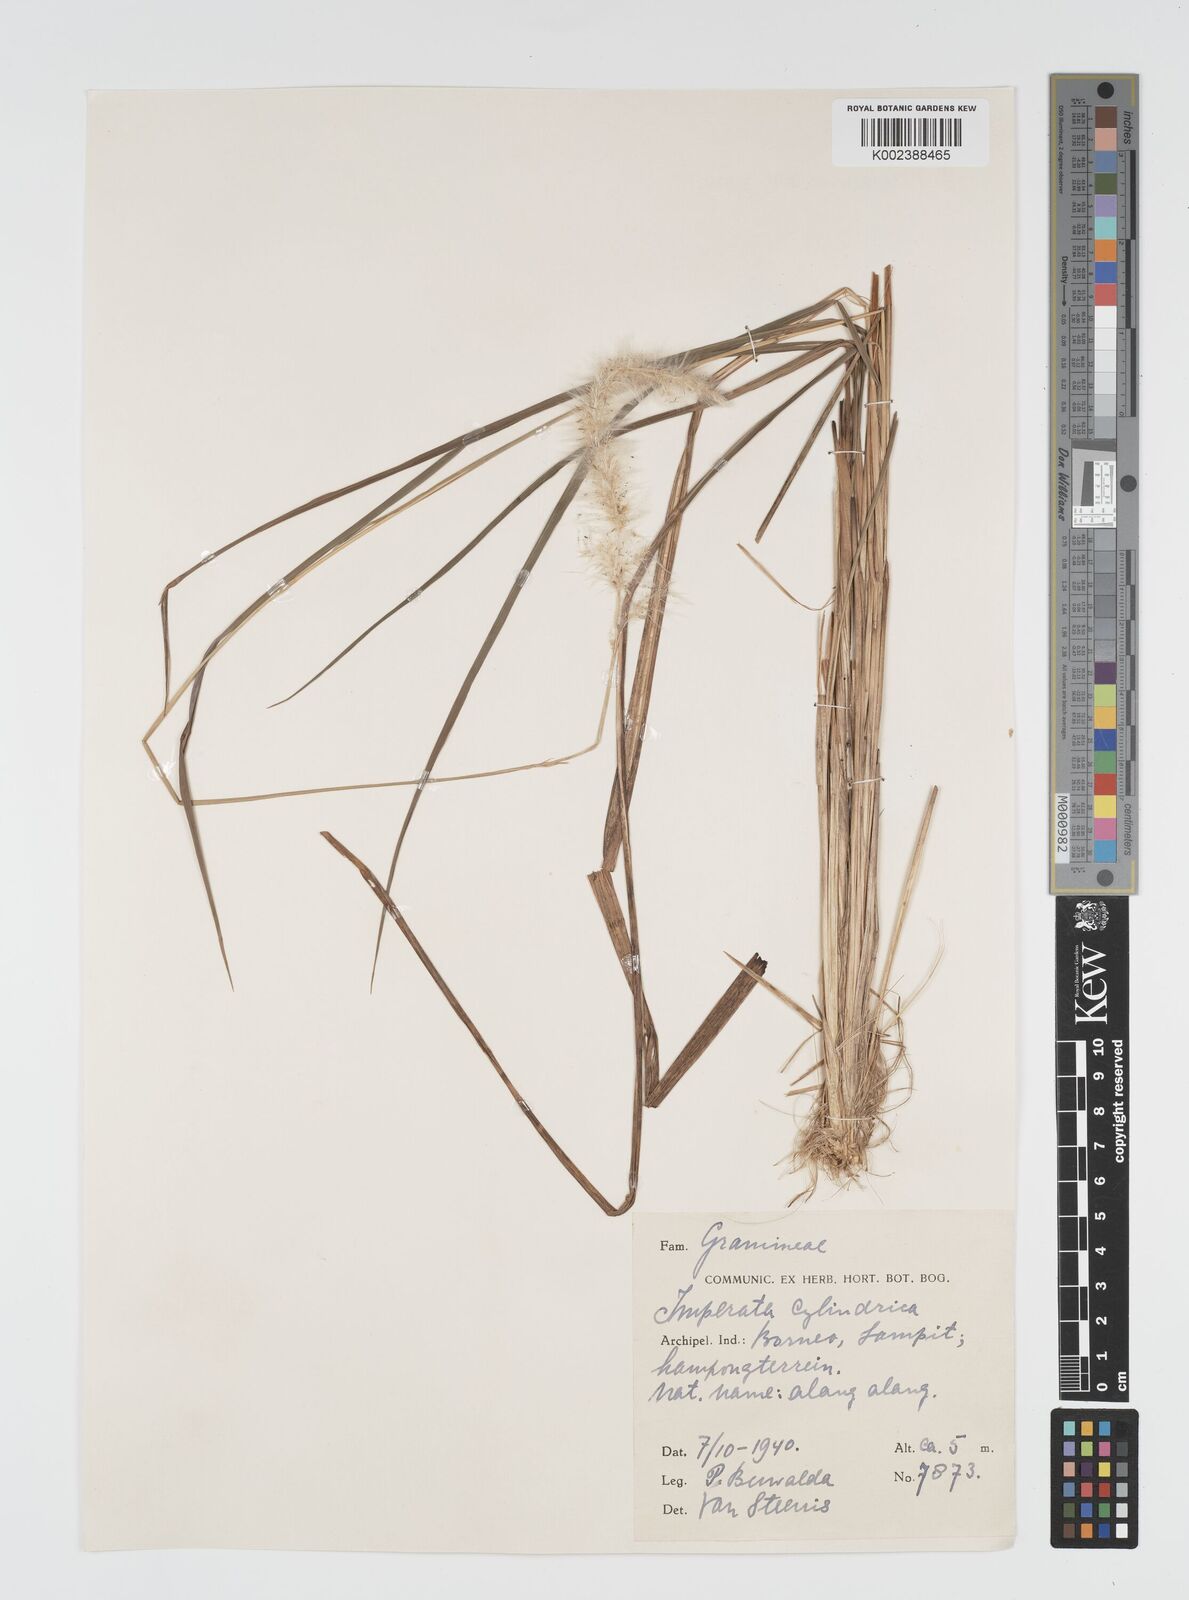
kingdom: Plantae
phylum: Tracheophyta
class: Liliopsida
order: Poales
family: Poaceae
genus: Imperata
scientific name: Imperata cylindrica
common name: Cogongrass
